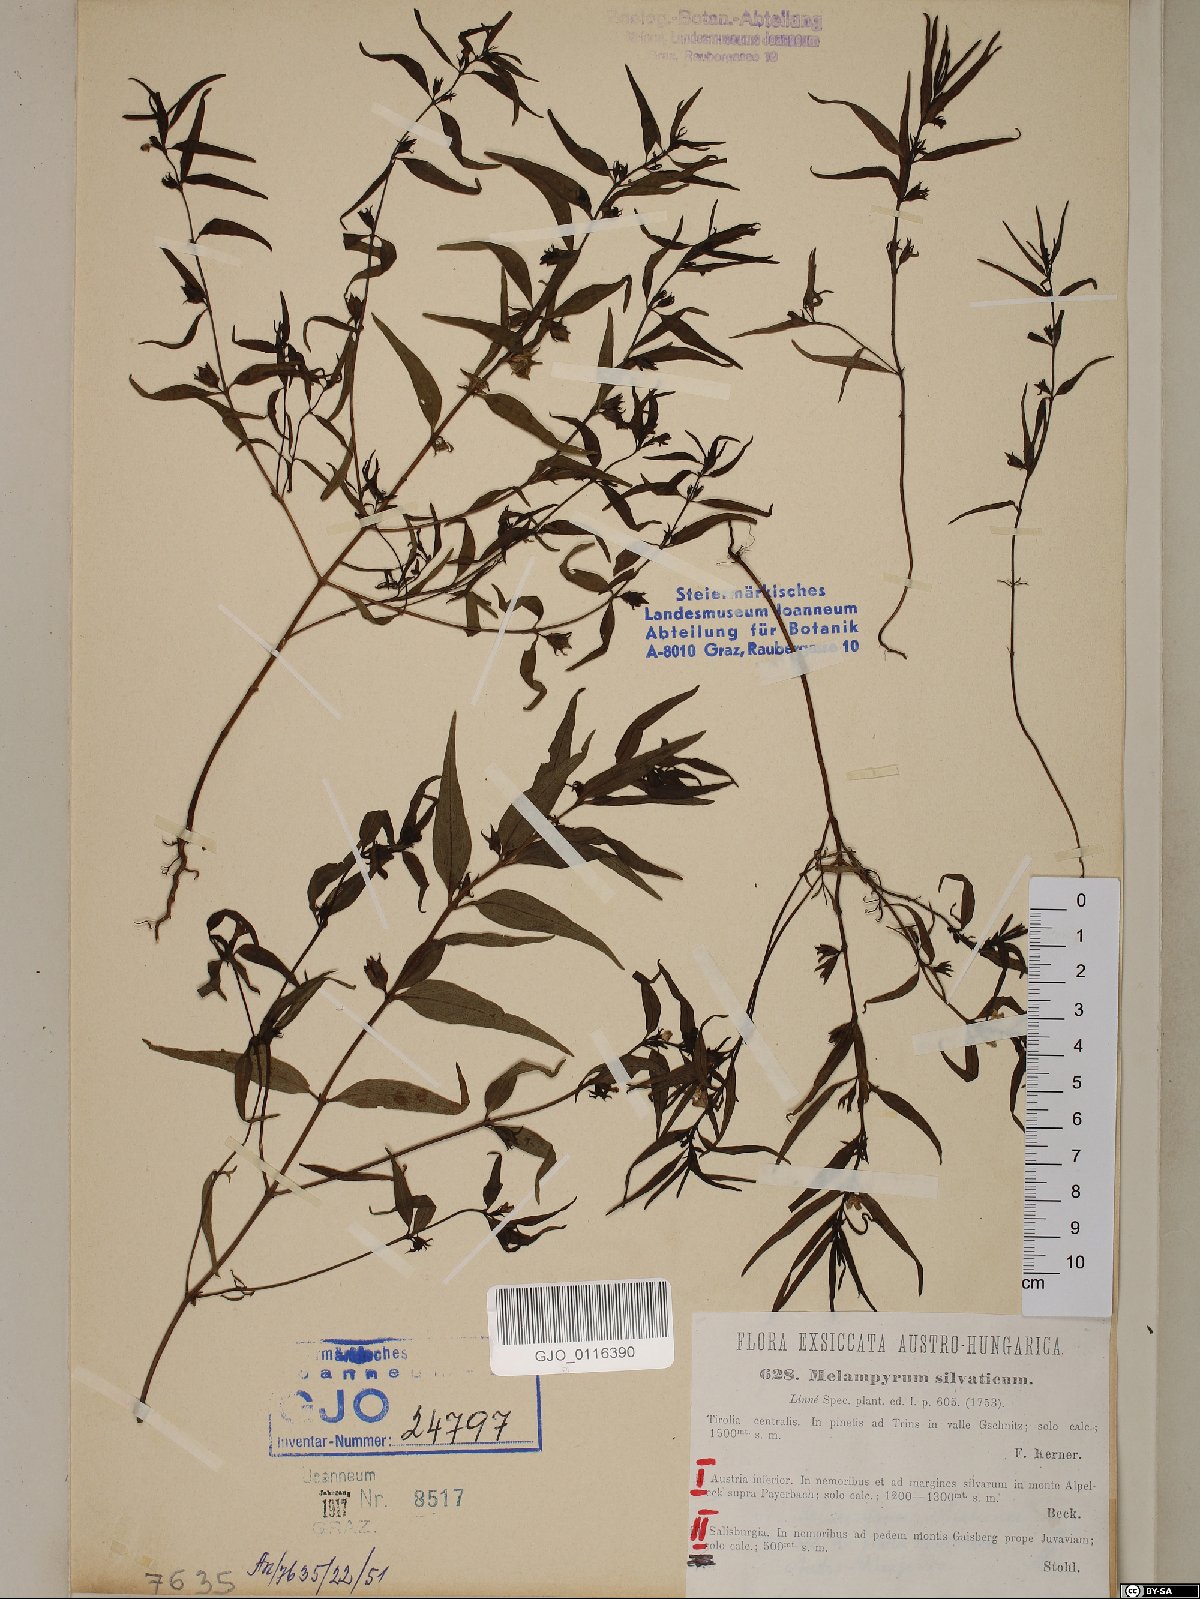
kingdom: Plantae
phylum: Tracheophyta
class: Magnoliopsida
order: Lamiales
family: Orobanchaceae
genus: Melampyrum
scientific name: Melampyrum sylvaticum
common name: Small cow-wheat
